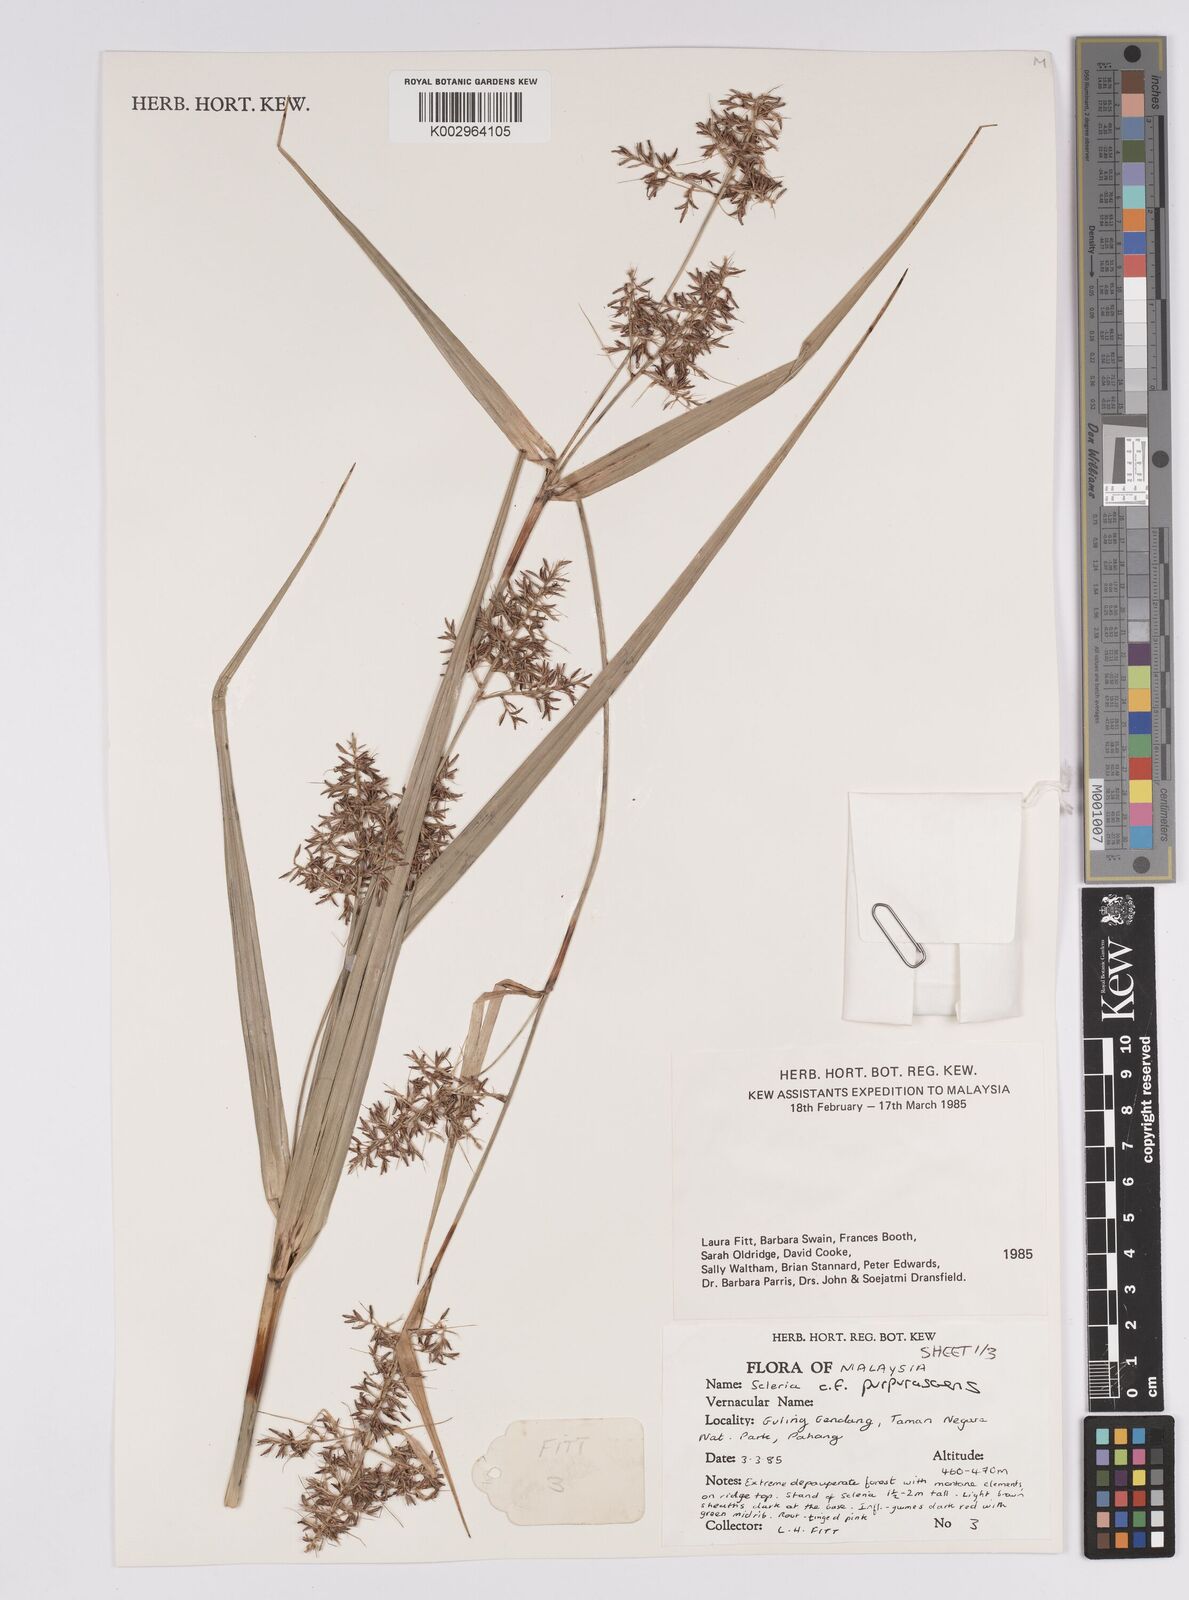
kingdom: Plantae
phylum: Tracheophyta
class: Liliopsida
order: Poales
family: Cyperaceae
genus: Scleria
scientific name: Scleria purpurascens
